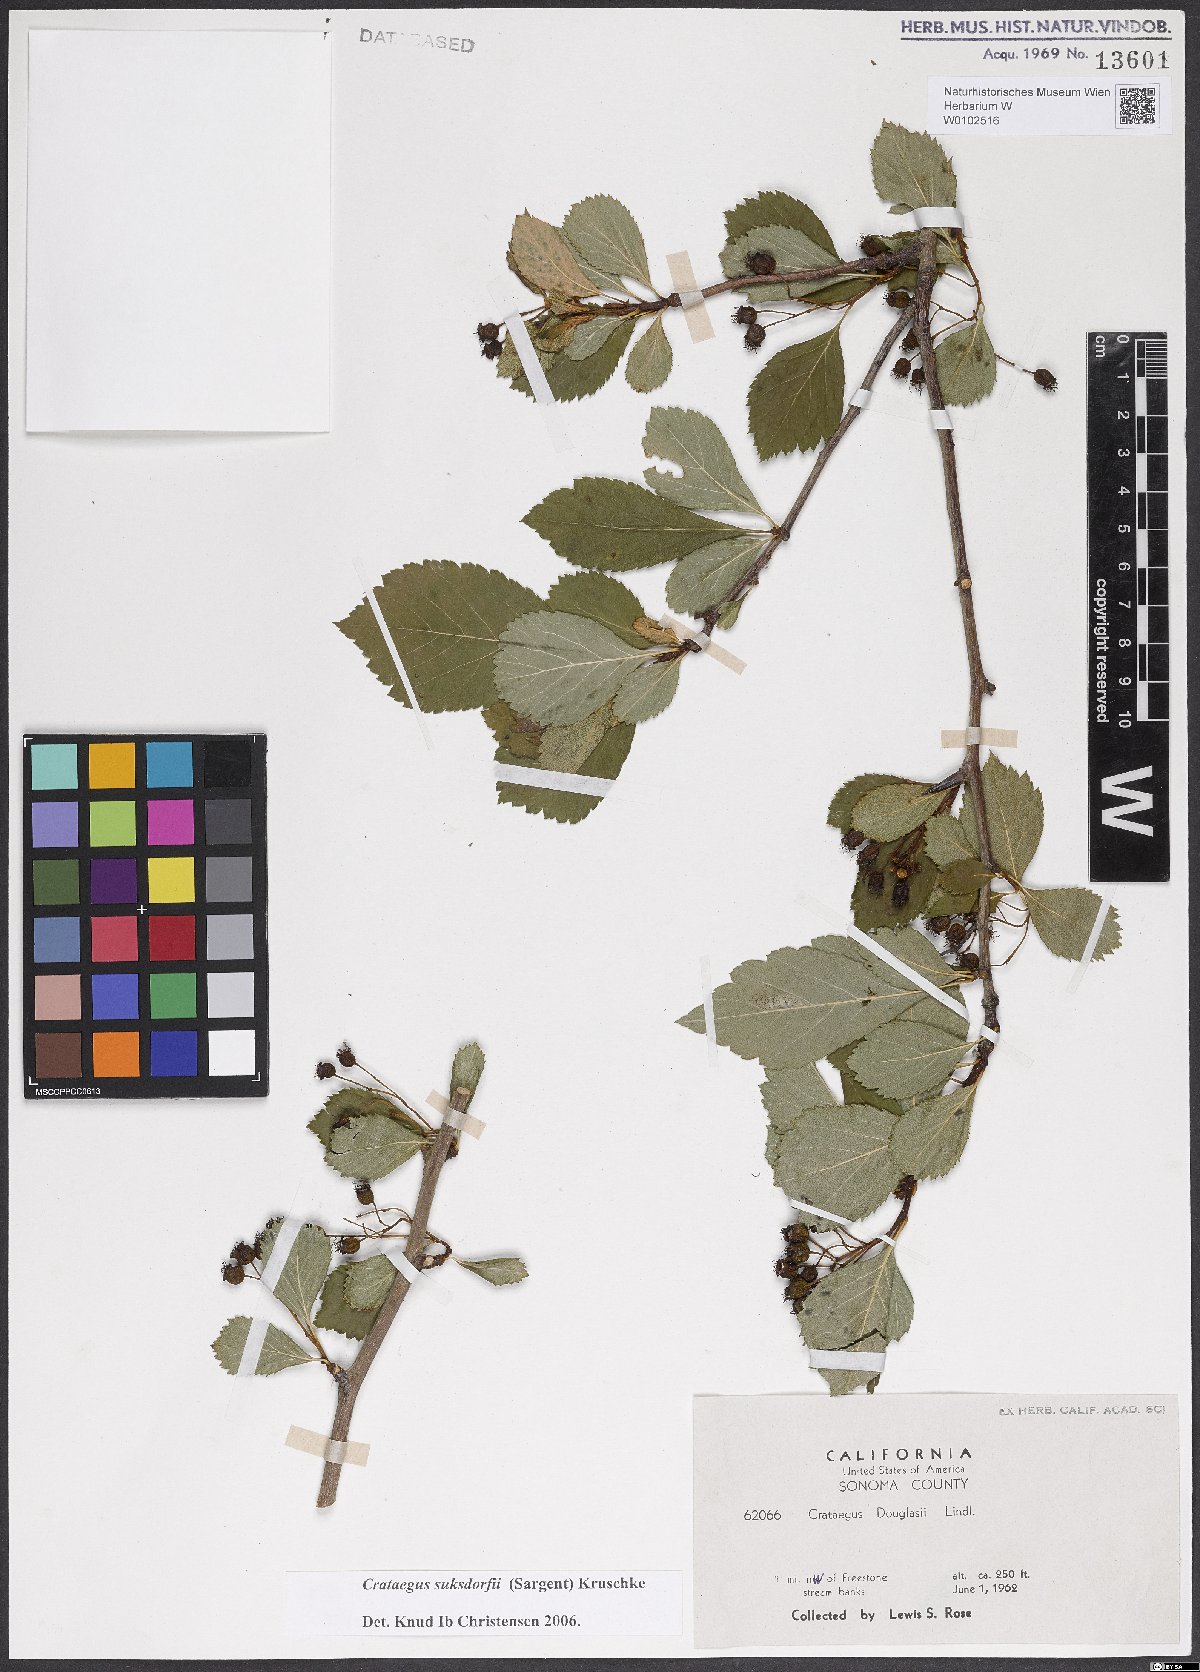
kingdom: Plantae
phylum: Tracheophyta
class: Magnoliopsida
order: Rosales
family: Rosaceae
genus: Crataegus
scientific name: Crataegus gaylussacia
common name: Huckleberry hawthorn
